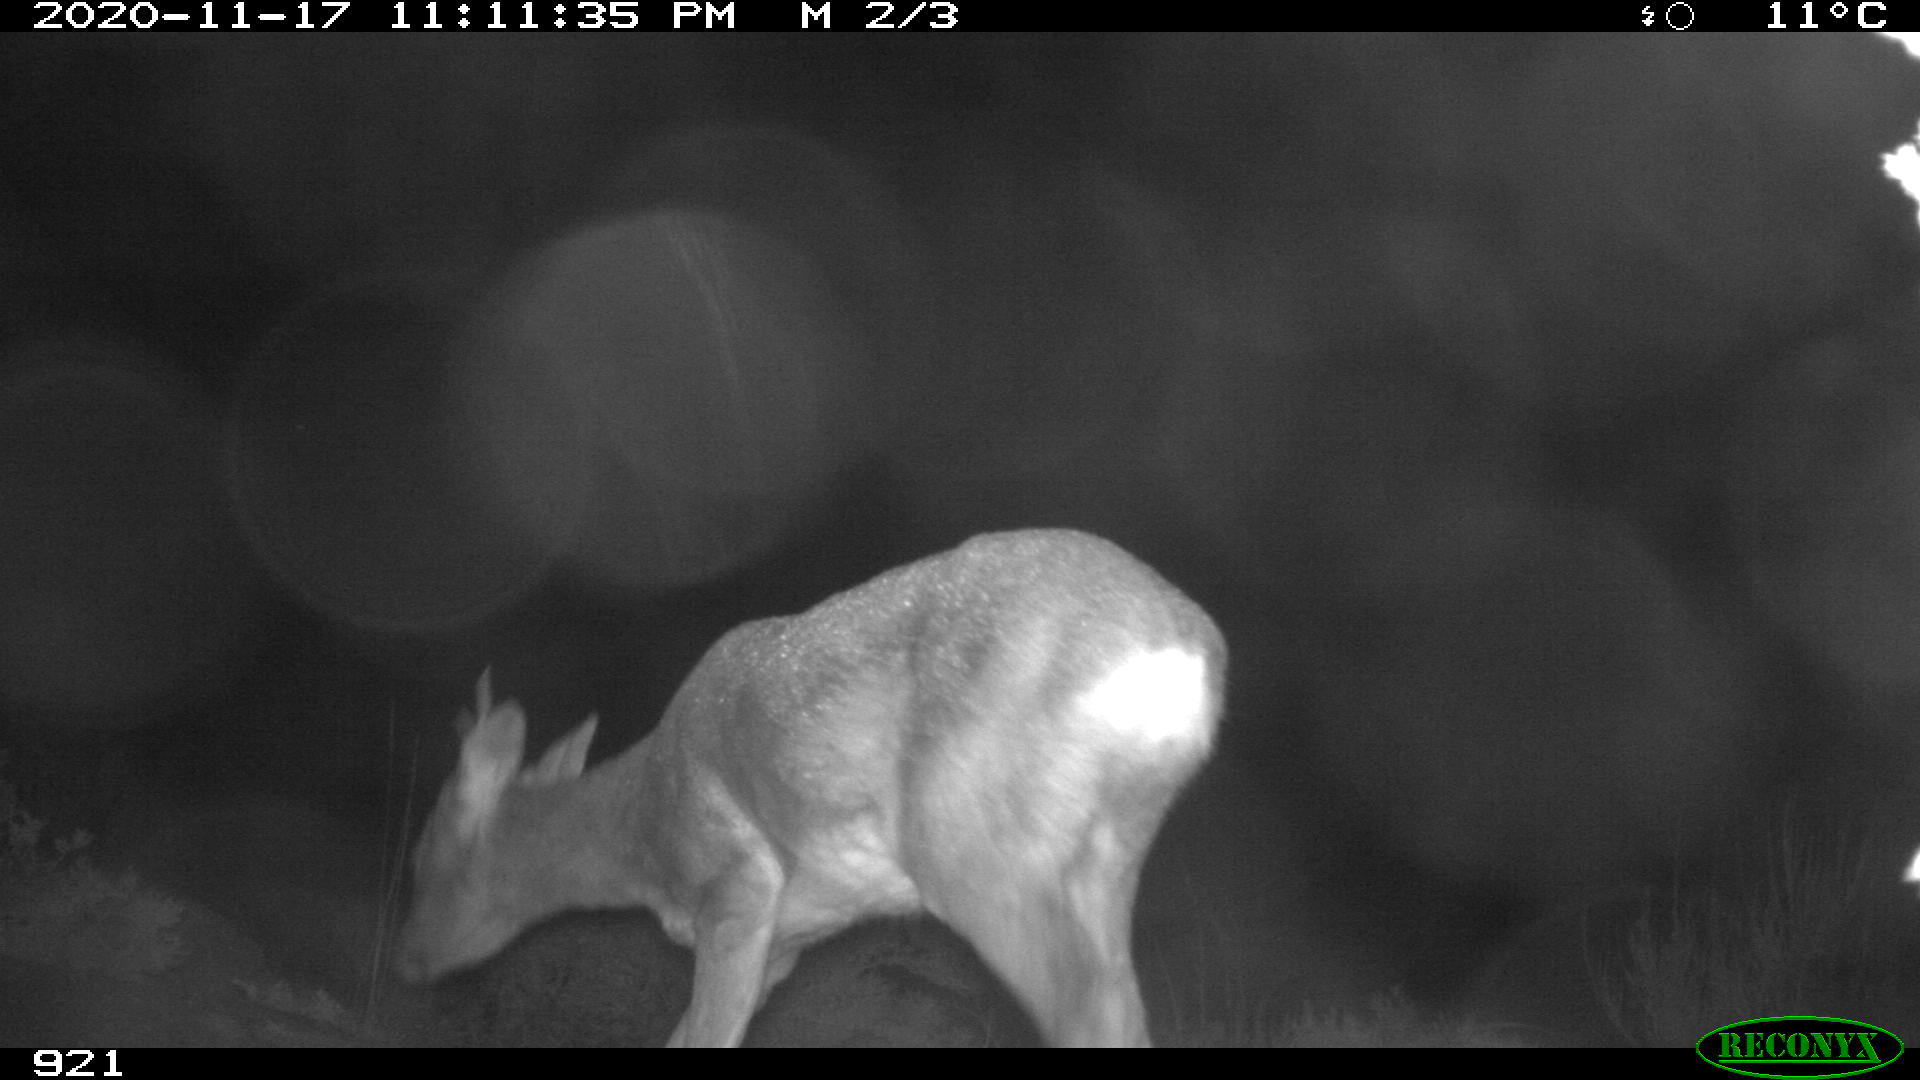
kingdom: Animalia
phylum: Chordata
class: Mammalia
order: Artiodactyla
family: Cervidae
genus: Capreolus
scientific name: Capreolus capreolus
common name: Western roe deer
